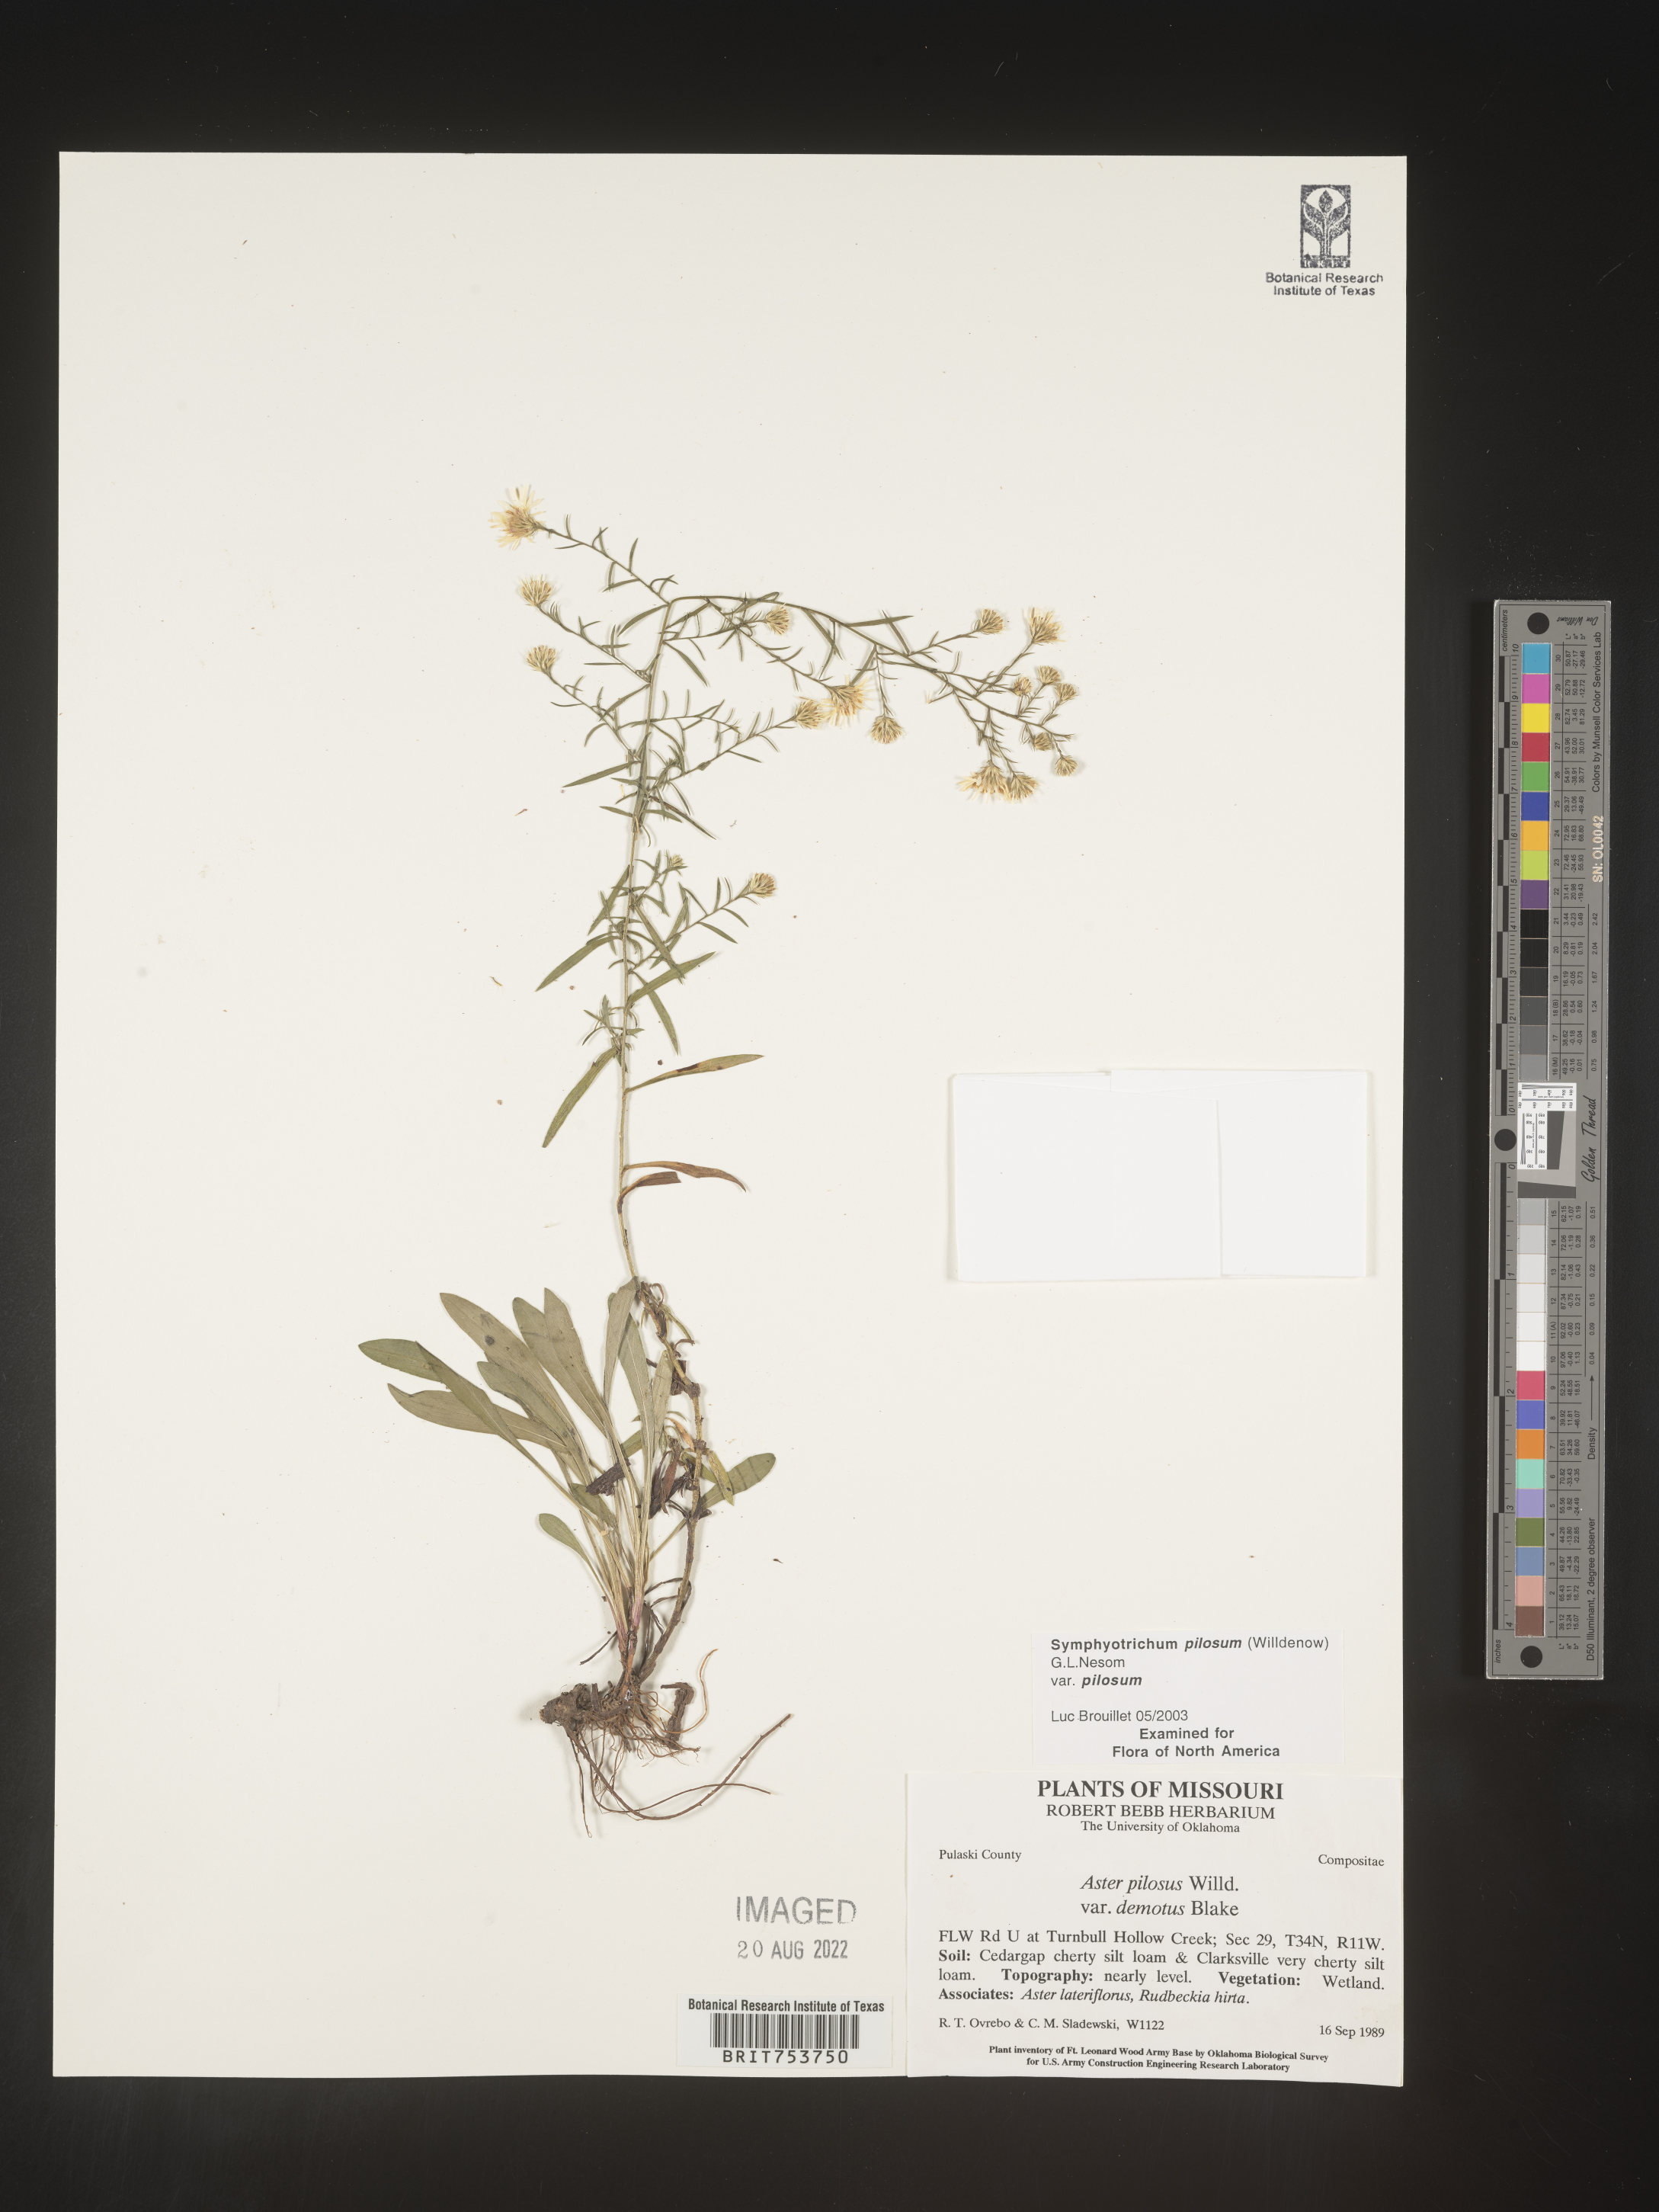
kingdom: Plantae
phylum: Tracheophyta
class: Magnoliopsida
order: Asterales
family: Asteraceae
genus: Symphyotrichum
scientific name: Symphyotrichum pilosum
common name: Awl aster
